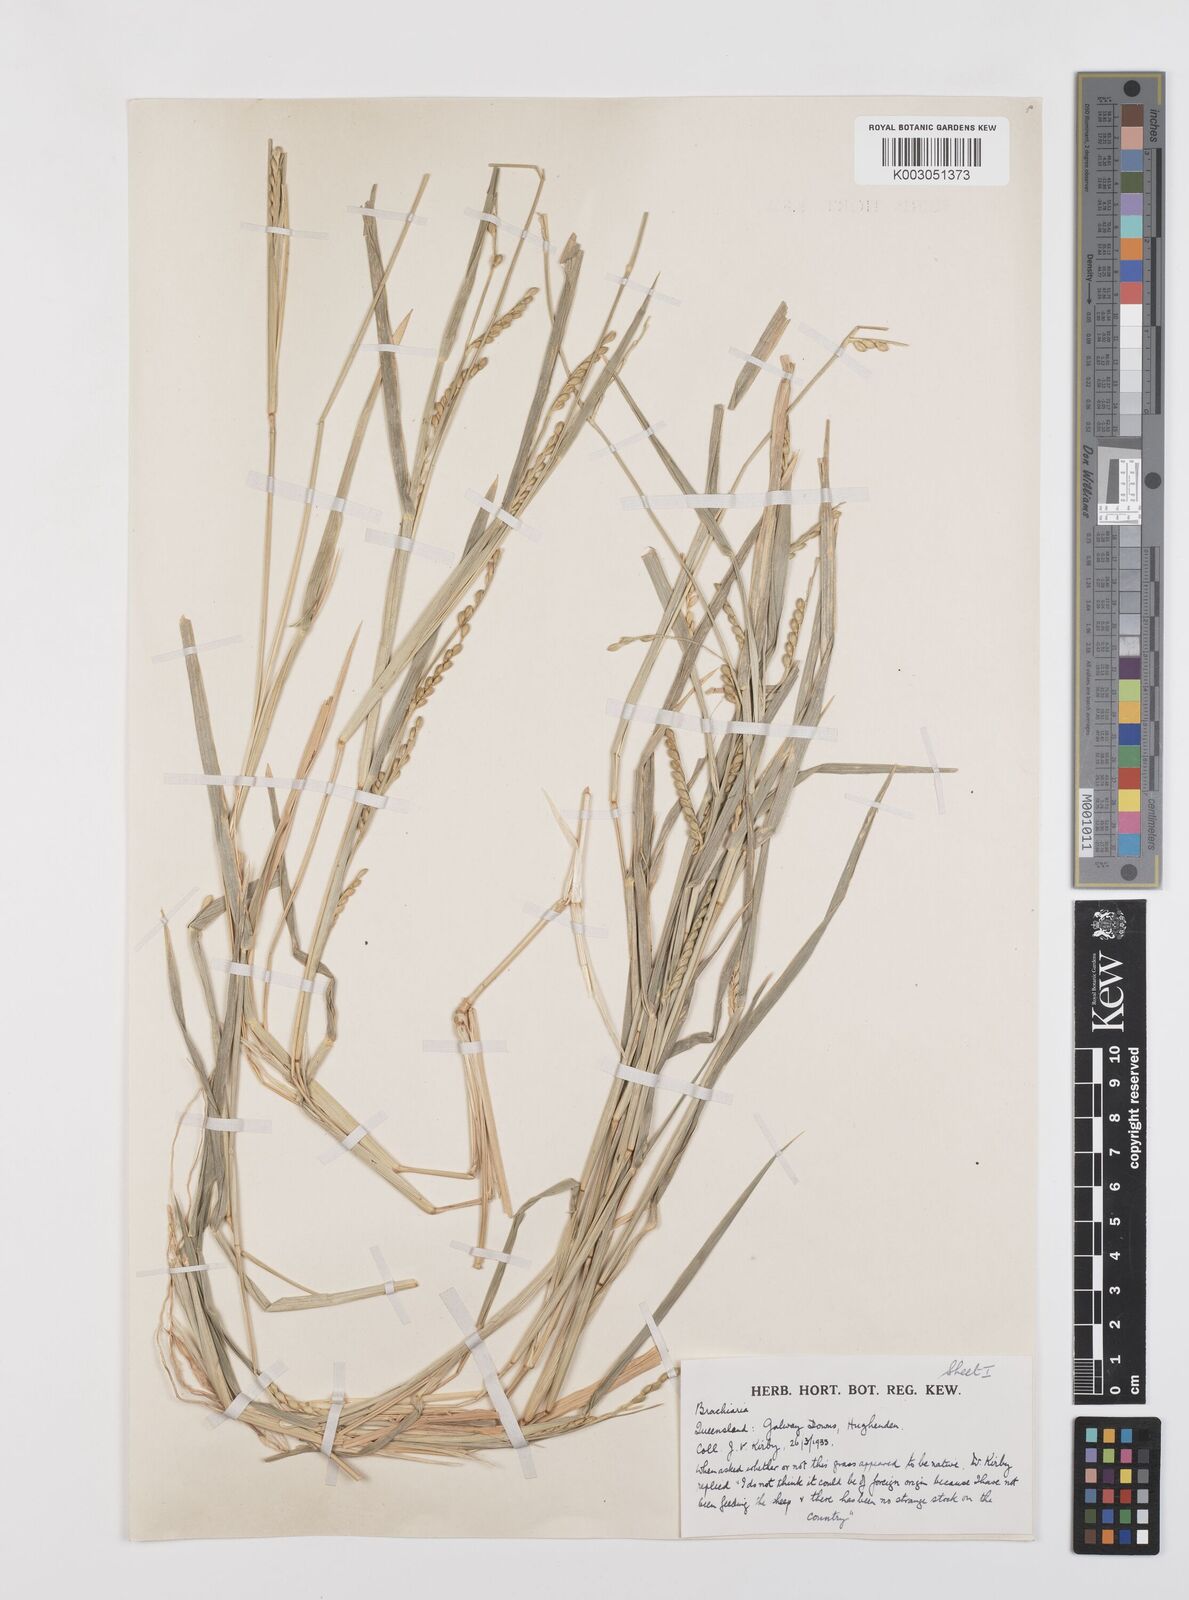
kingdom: Plantae
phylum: Tracheophyta
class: Liliopsida
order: Poales
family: Poaceae
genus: Brachiaria
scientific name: Brachiaria
